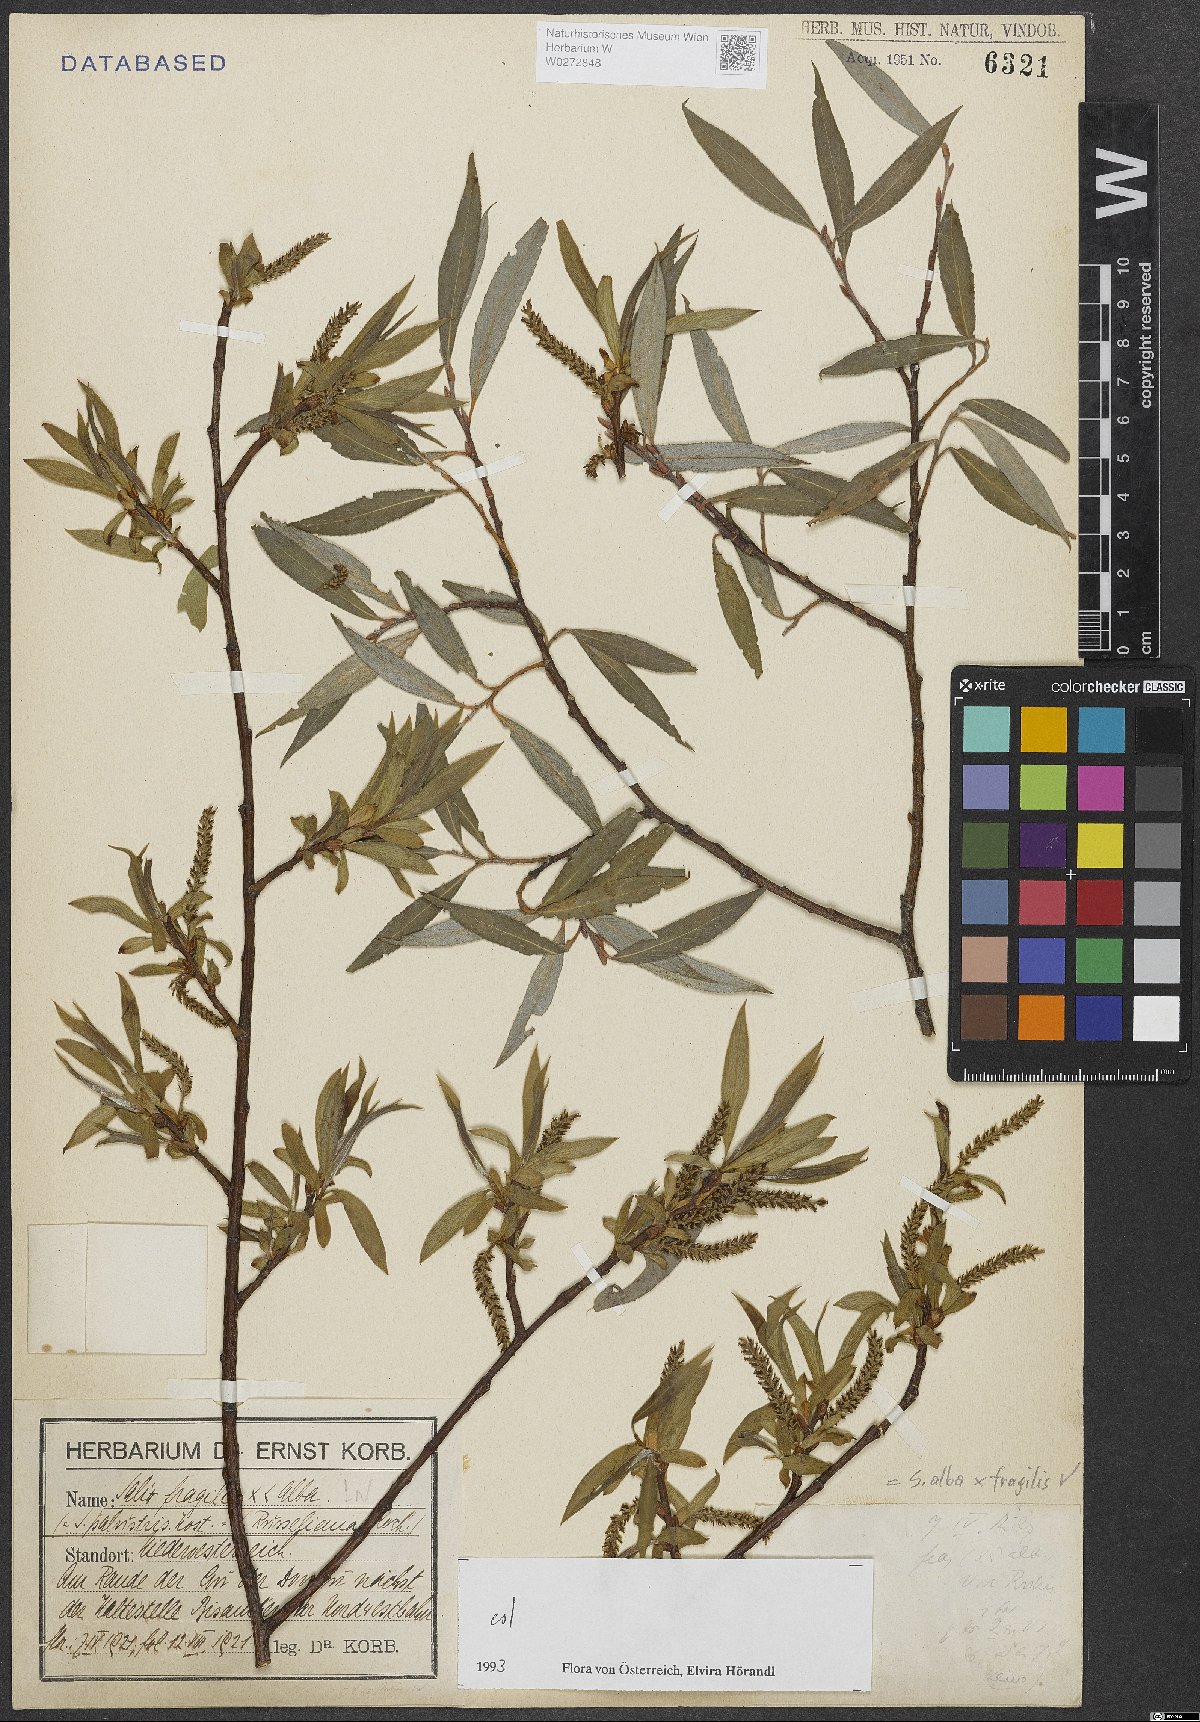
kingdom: Plantae
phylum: Tracheophyta
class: Magnoliopsida
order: Malpighiales
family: Salicaceae
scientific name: Salicaceae
